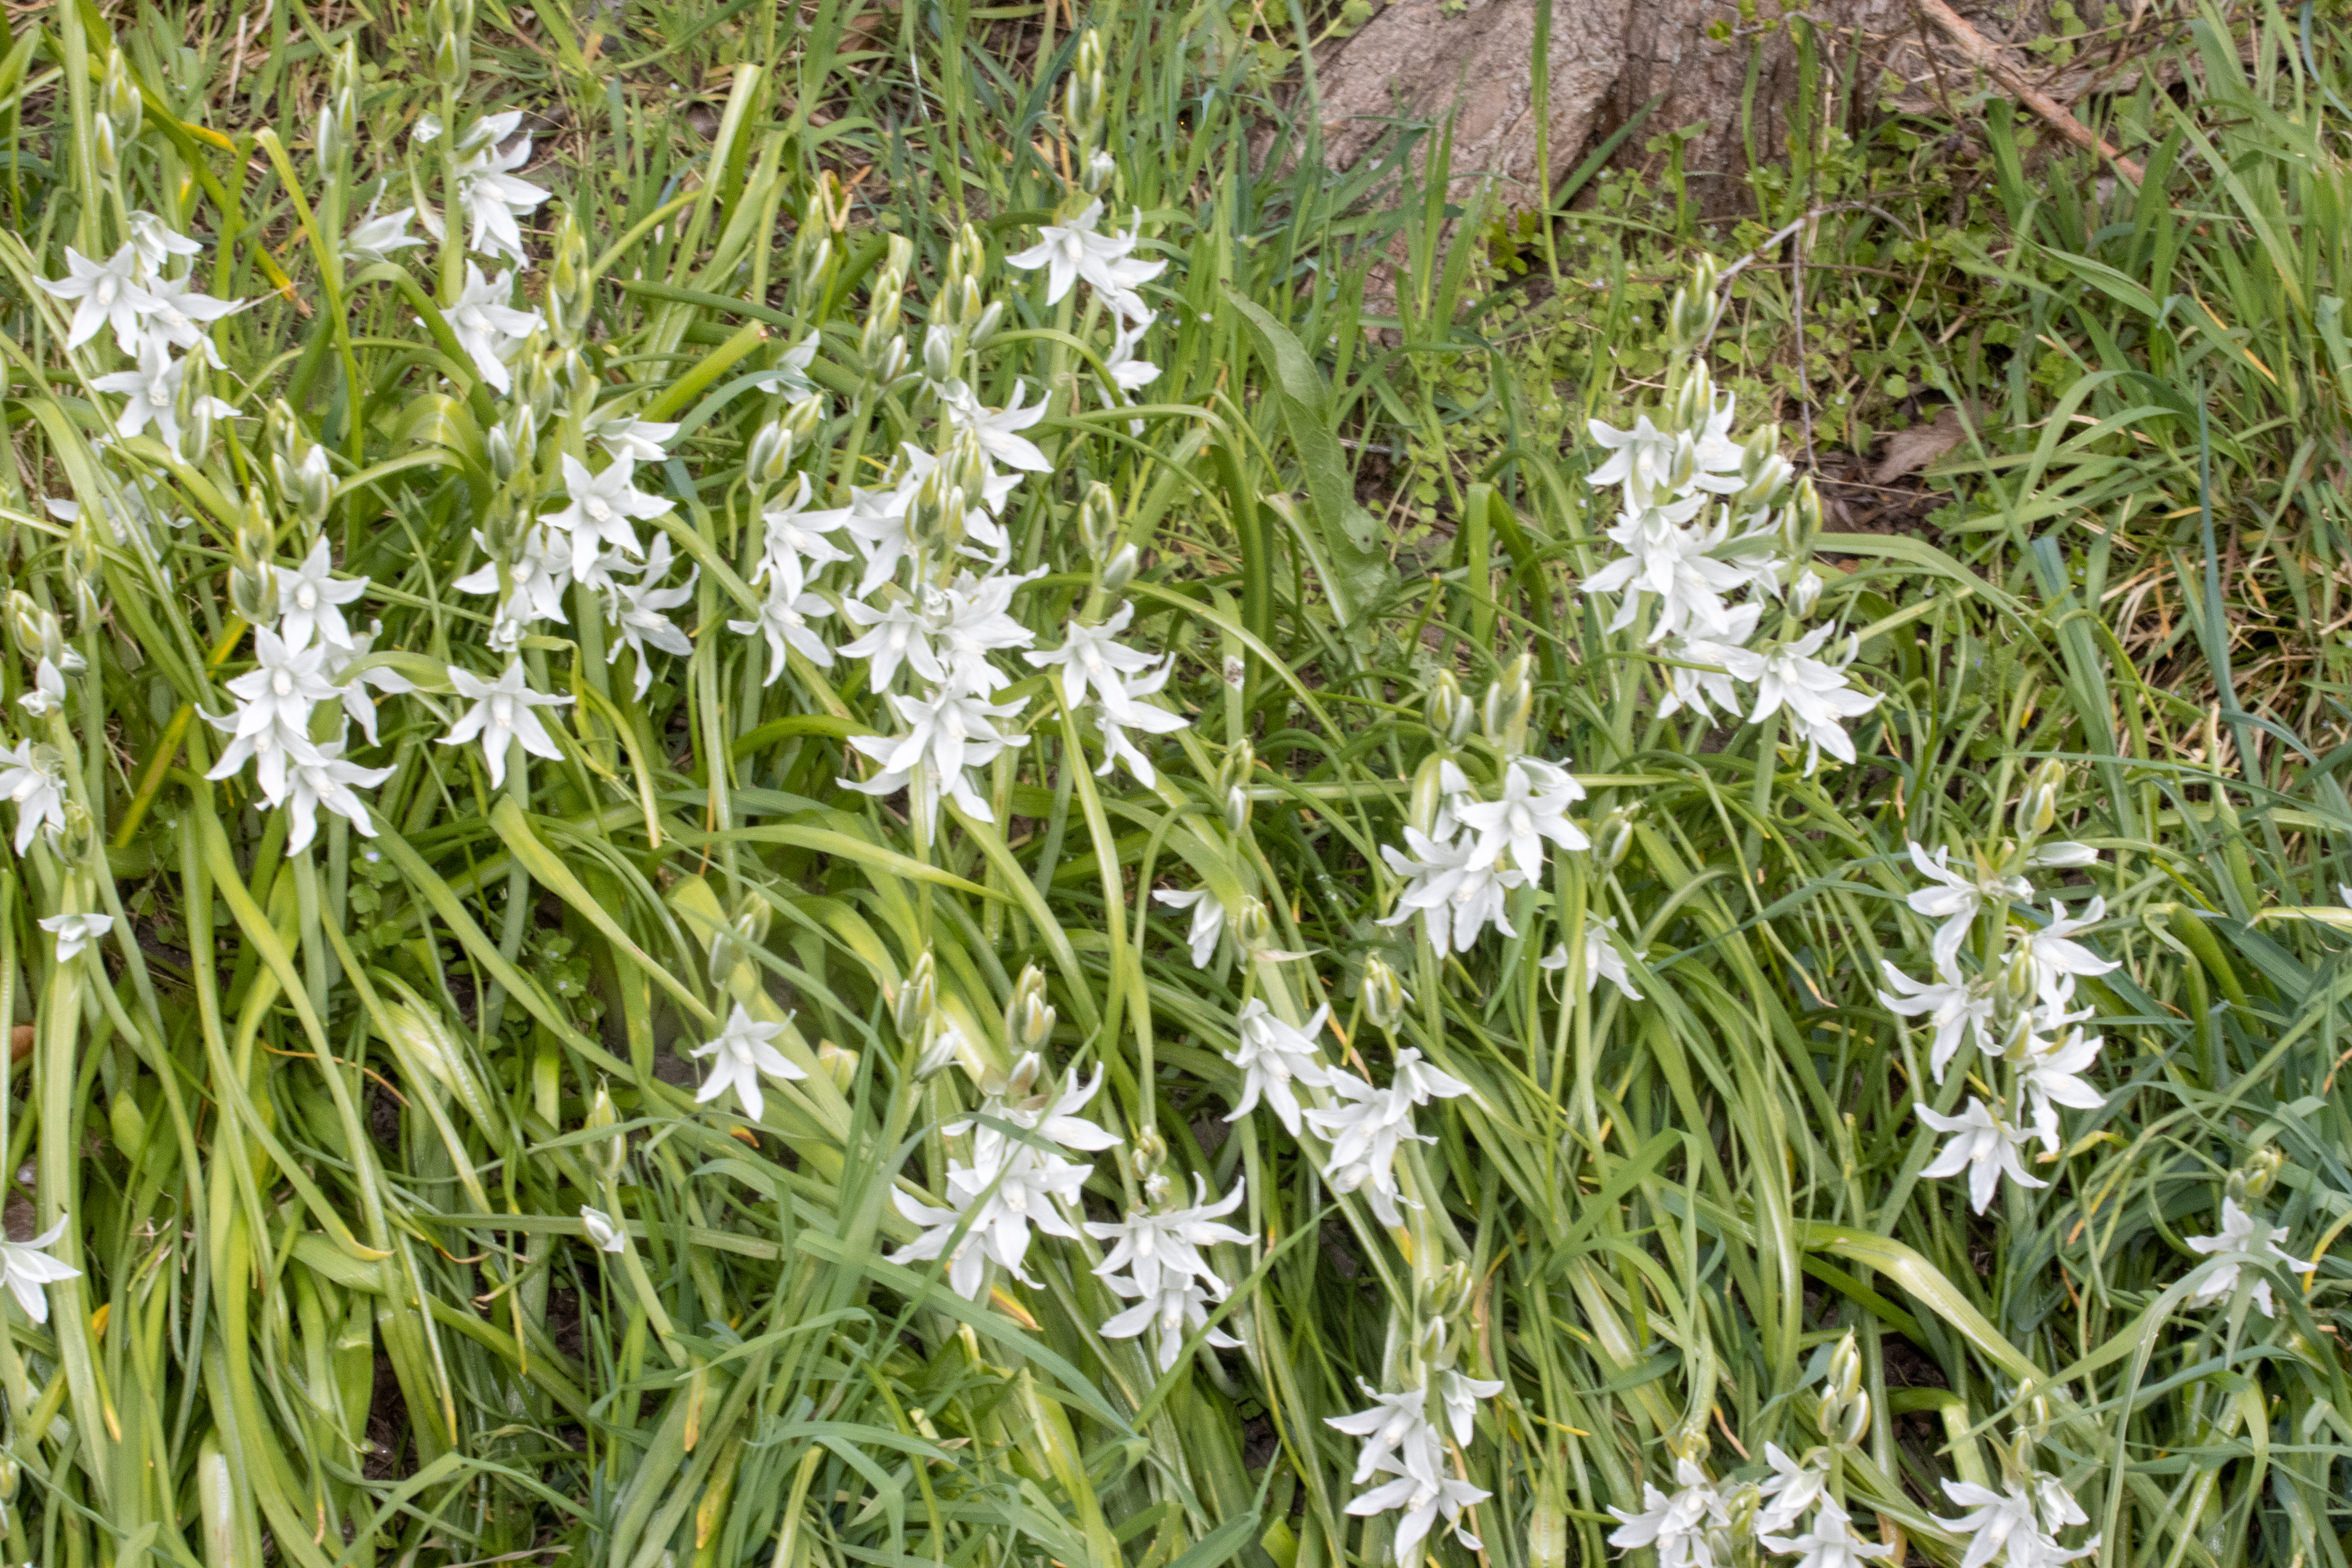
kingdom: Plantae
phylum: Tracheophyta
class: Liliopsida
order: Asparagales
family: Asparagaceae
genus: Ornithogalum
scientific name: Ornithogalum nutans
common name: Nikkende fuglemælk
